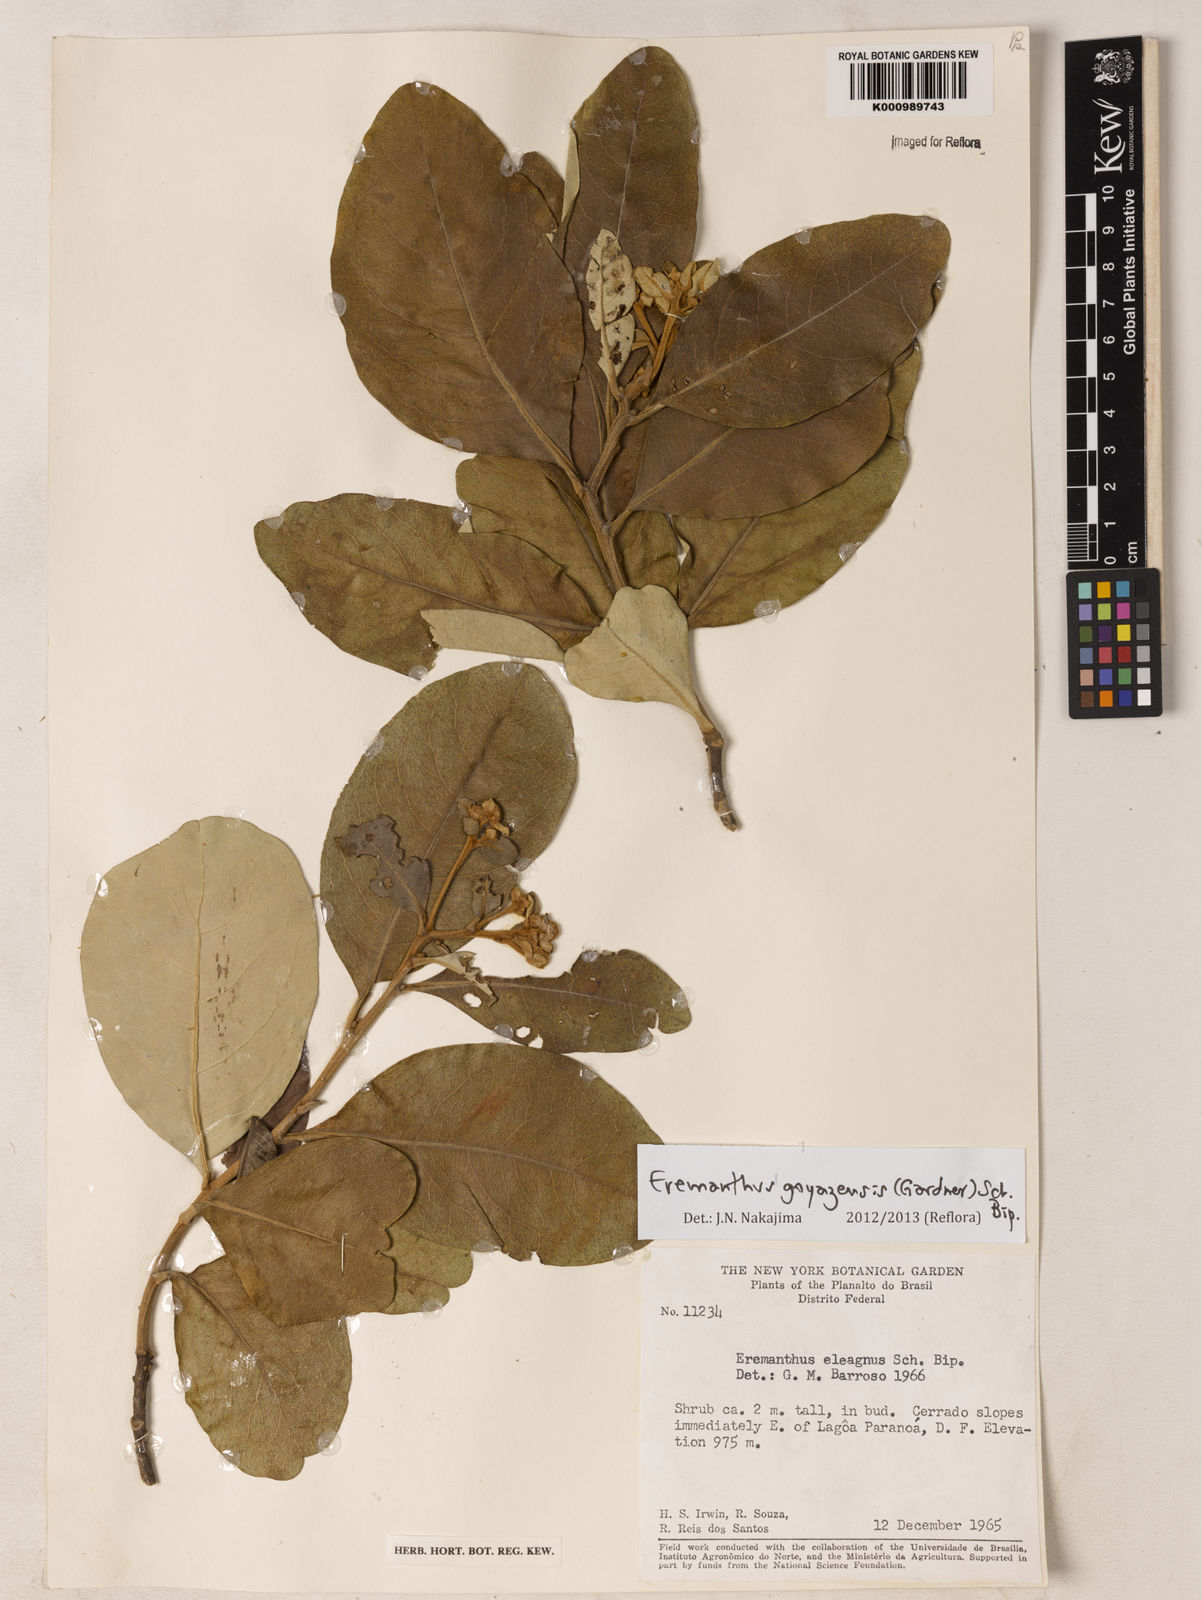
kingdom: Plantae
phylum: Tracheophyta
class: Magnoliopsida
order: Asterales
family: Asteraceae
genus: Eremanthus
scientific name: Eremanthus goyazensis
